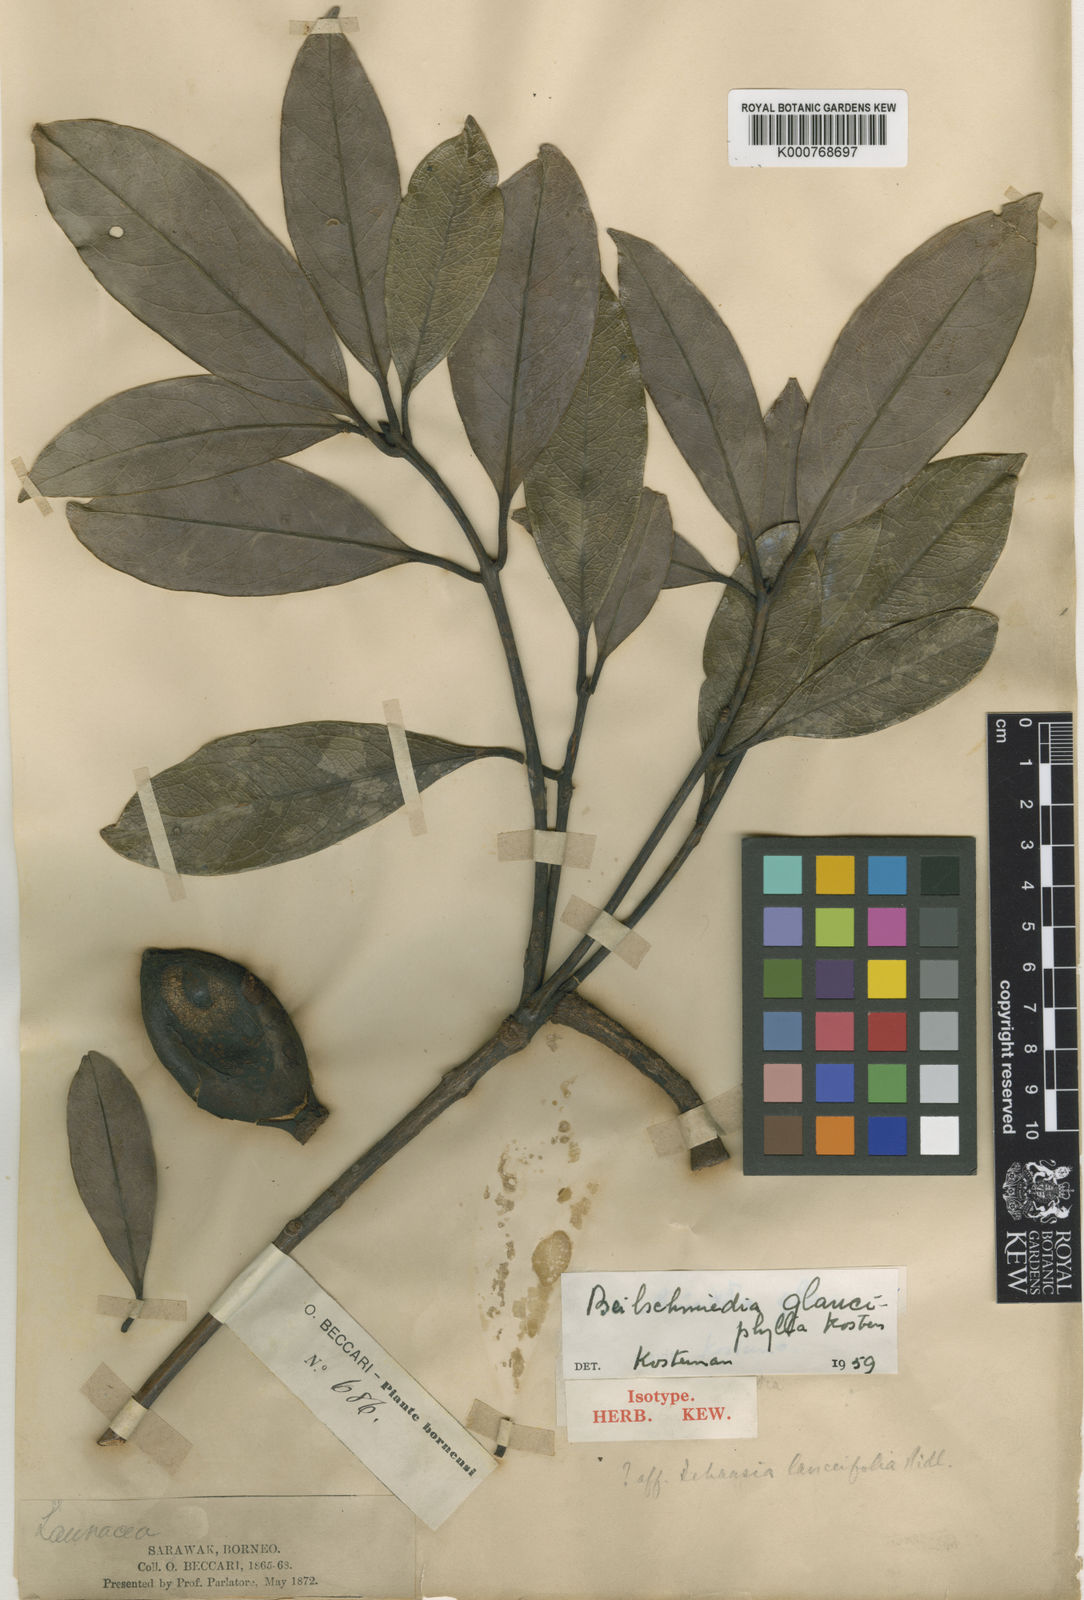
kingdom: Plantae
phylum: Tracheophyta
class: Magnoliopsida
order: Laurales
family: Lauraceae
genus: Beilschmiedia
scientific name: Beilschmiedia glauciphylla
